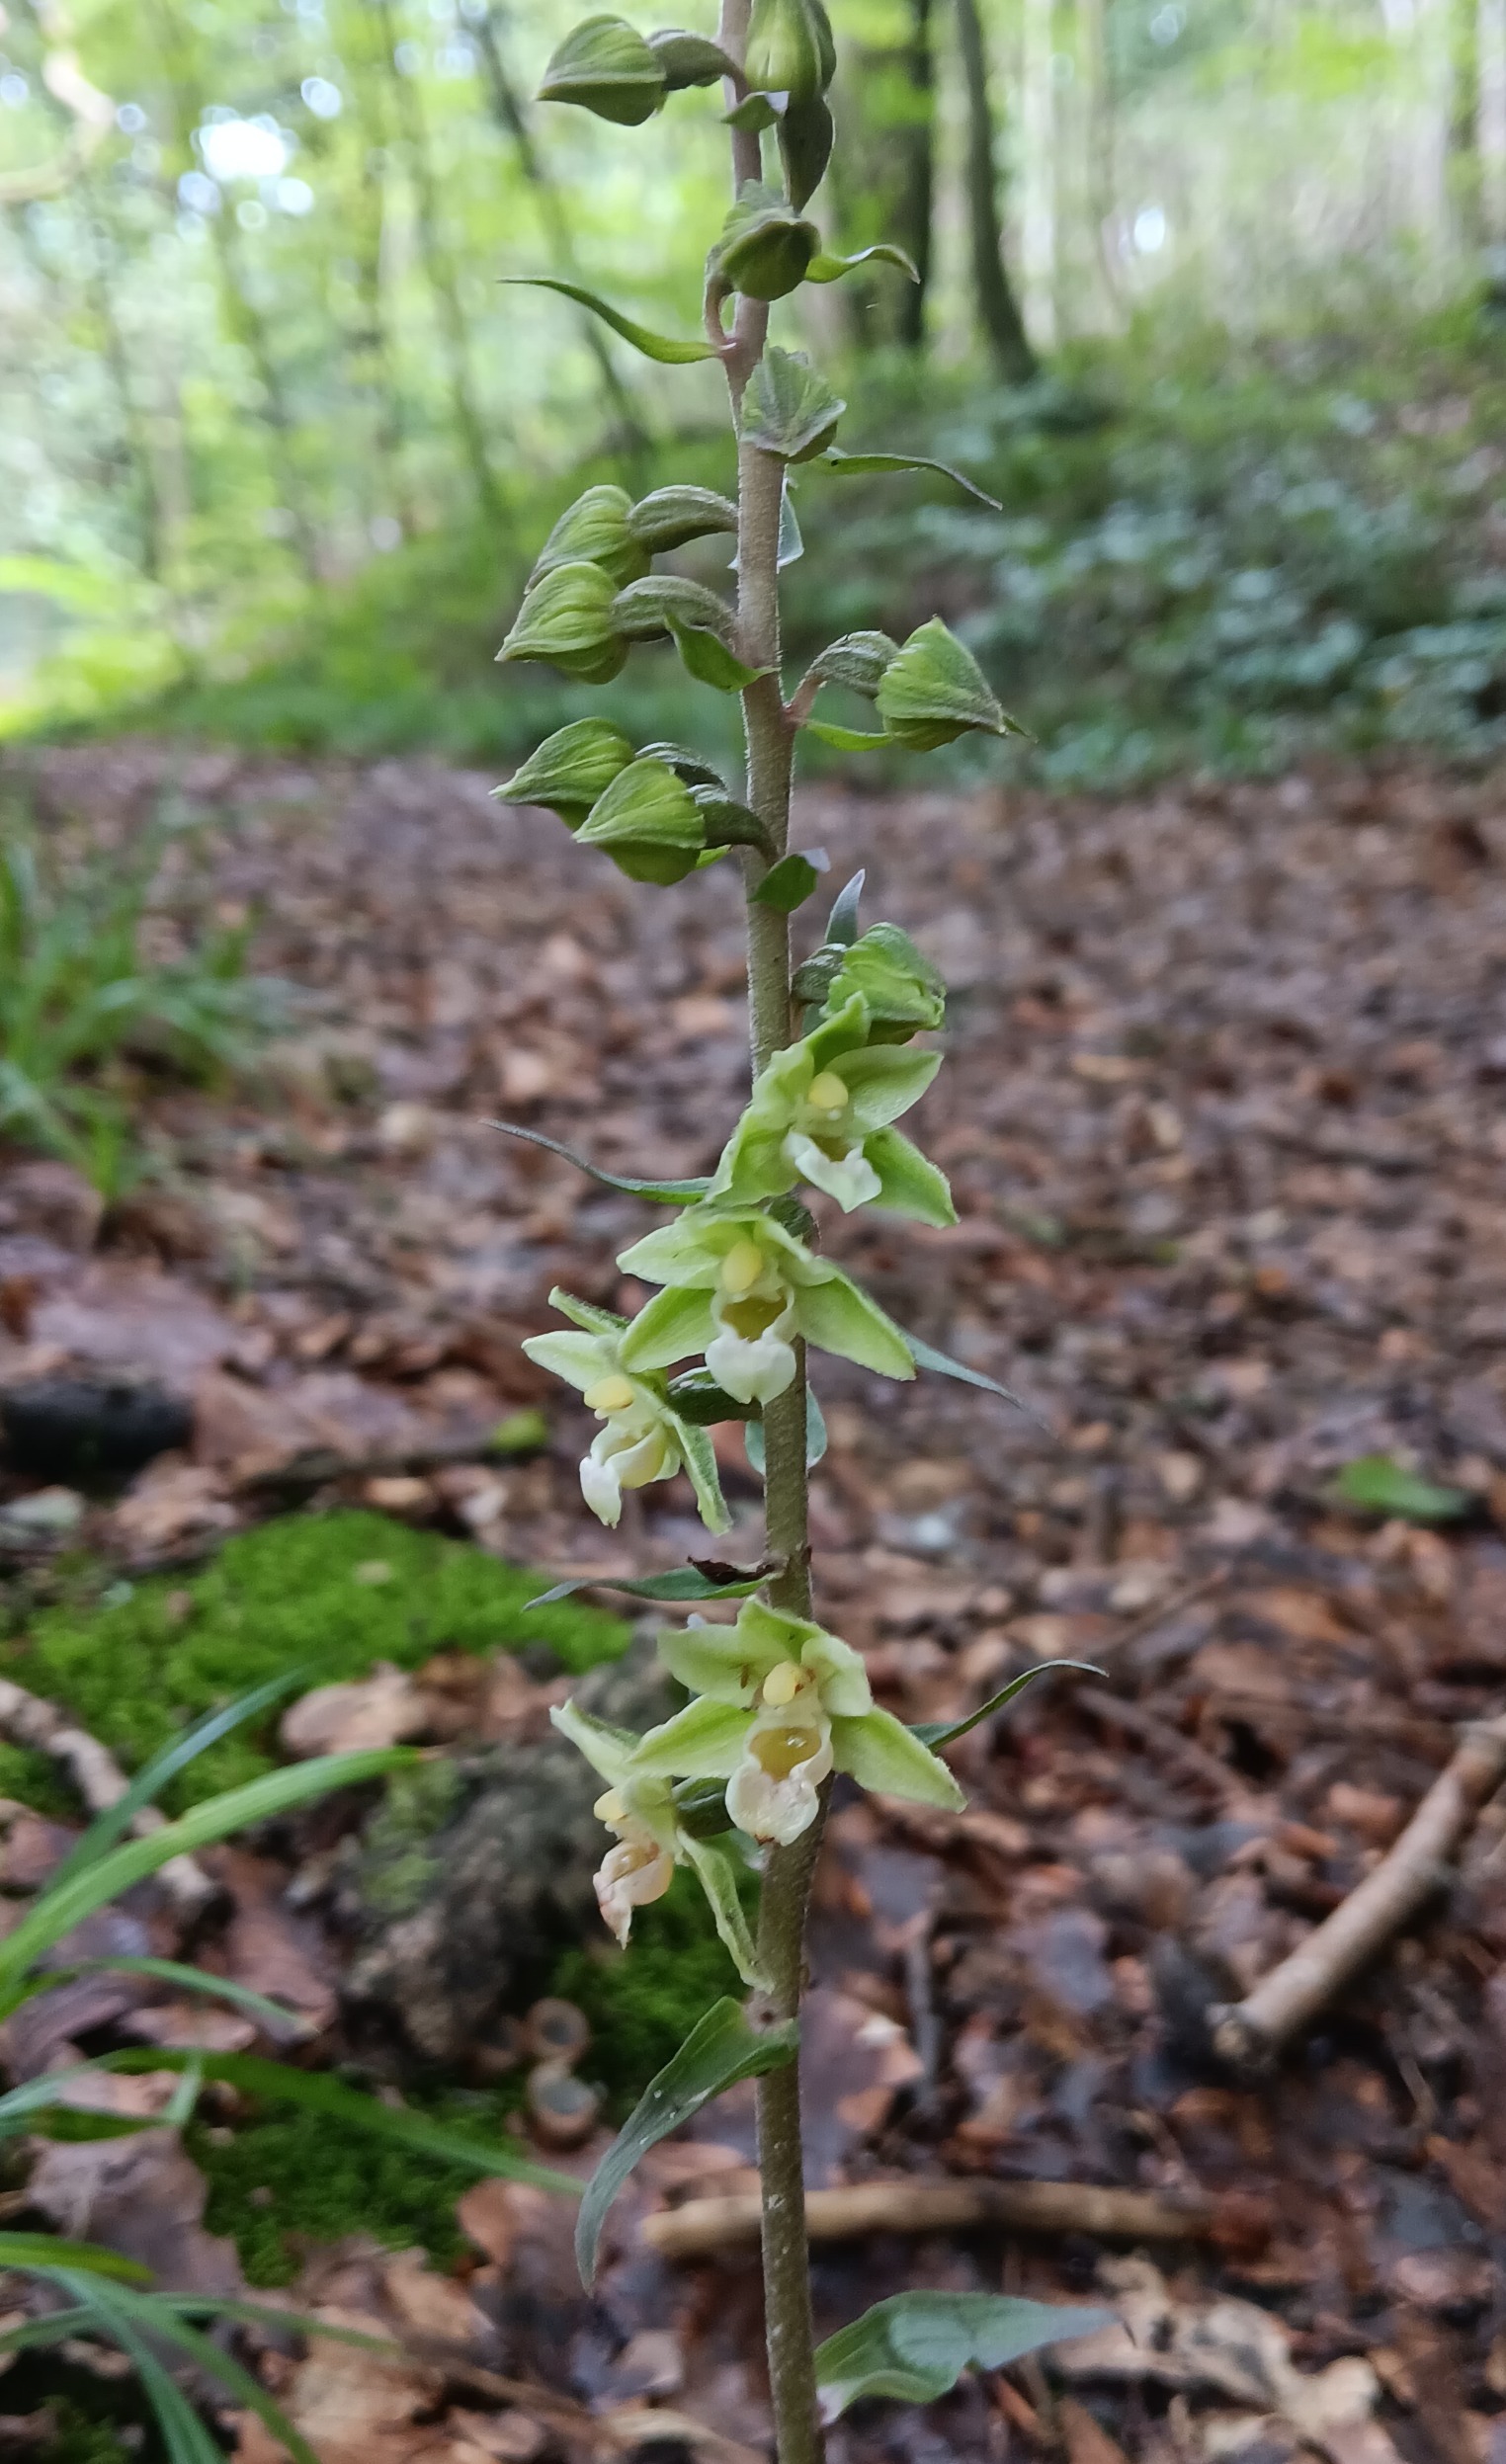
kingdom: Plantae
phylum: Tracheophyta
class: Liliopsida
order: Asparagales
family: Orchidaceae
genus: Epipactis
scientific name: Epipactis purpurata
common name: Tætblomstret hullæbe
